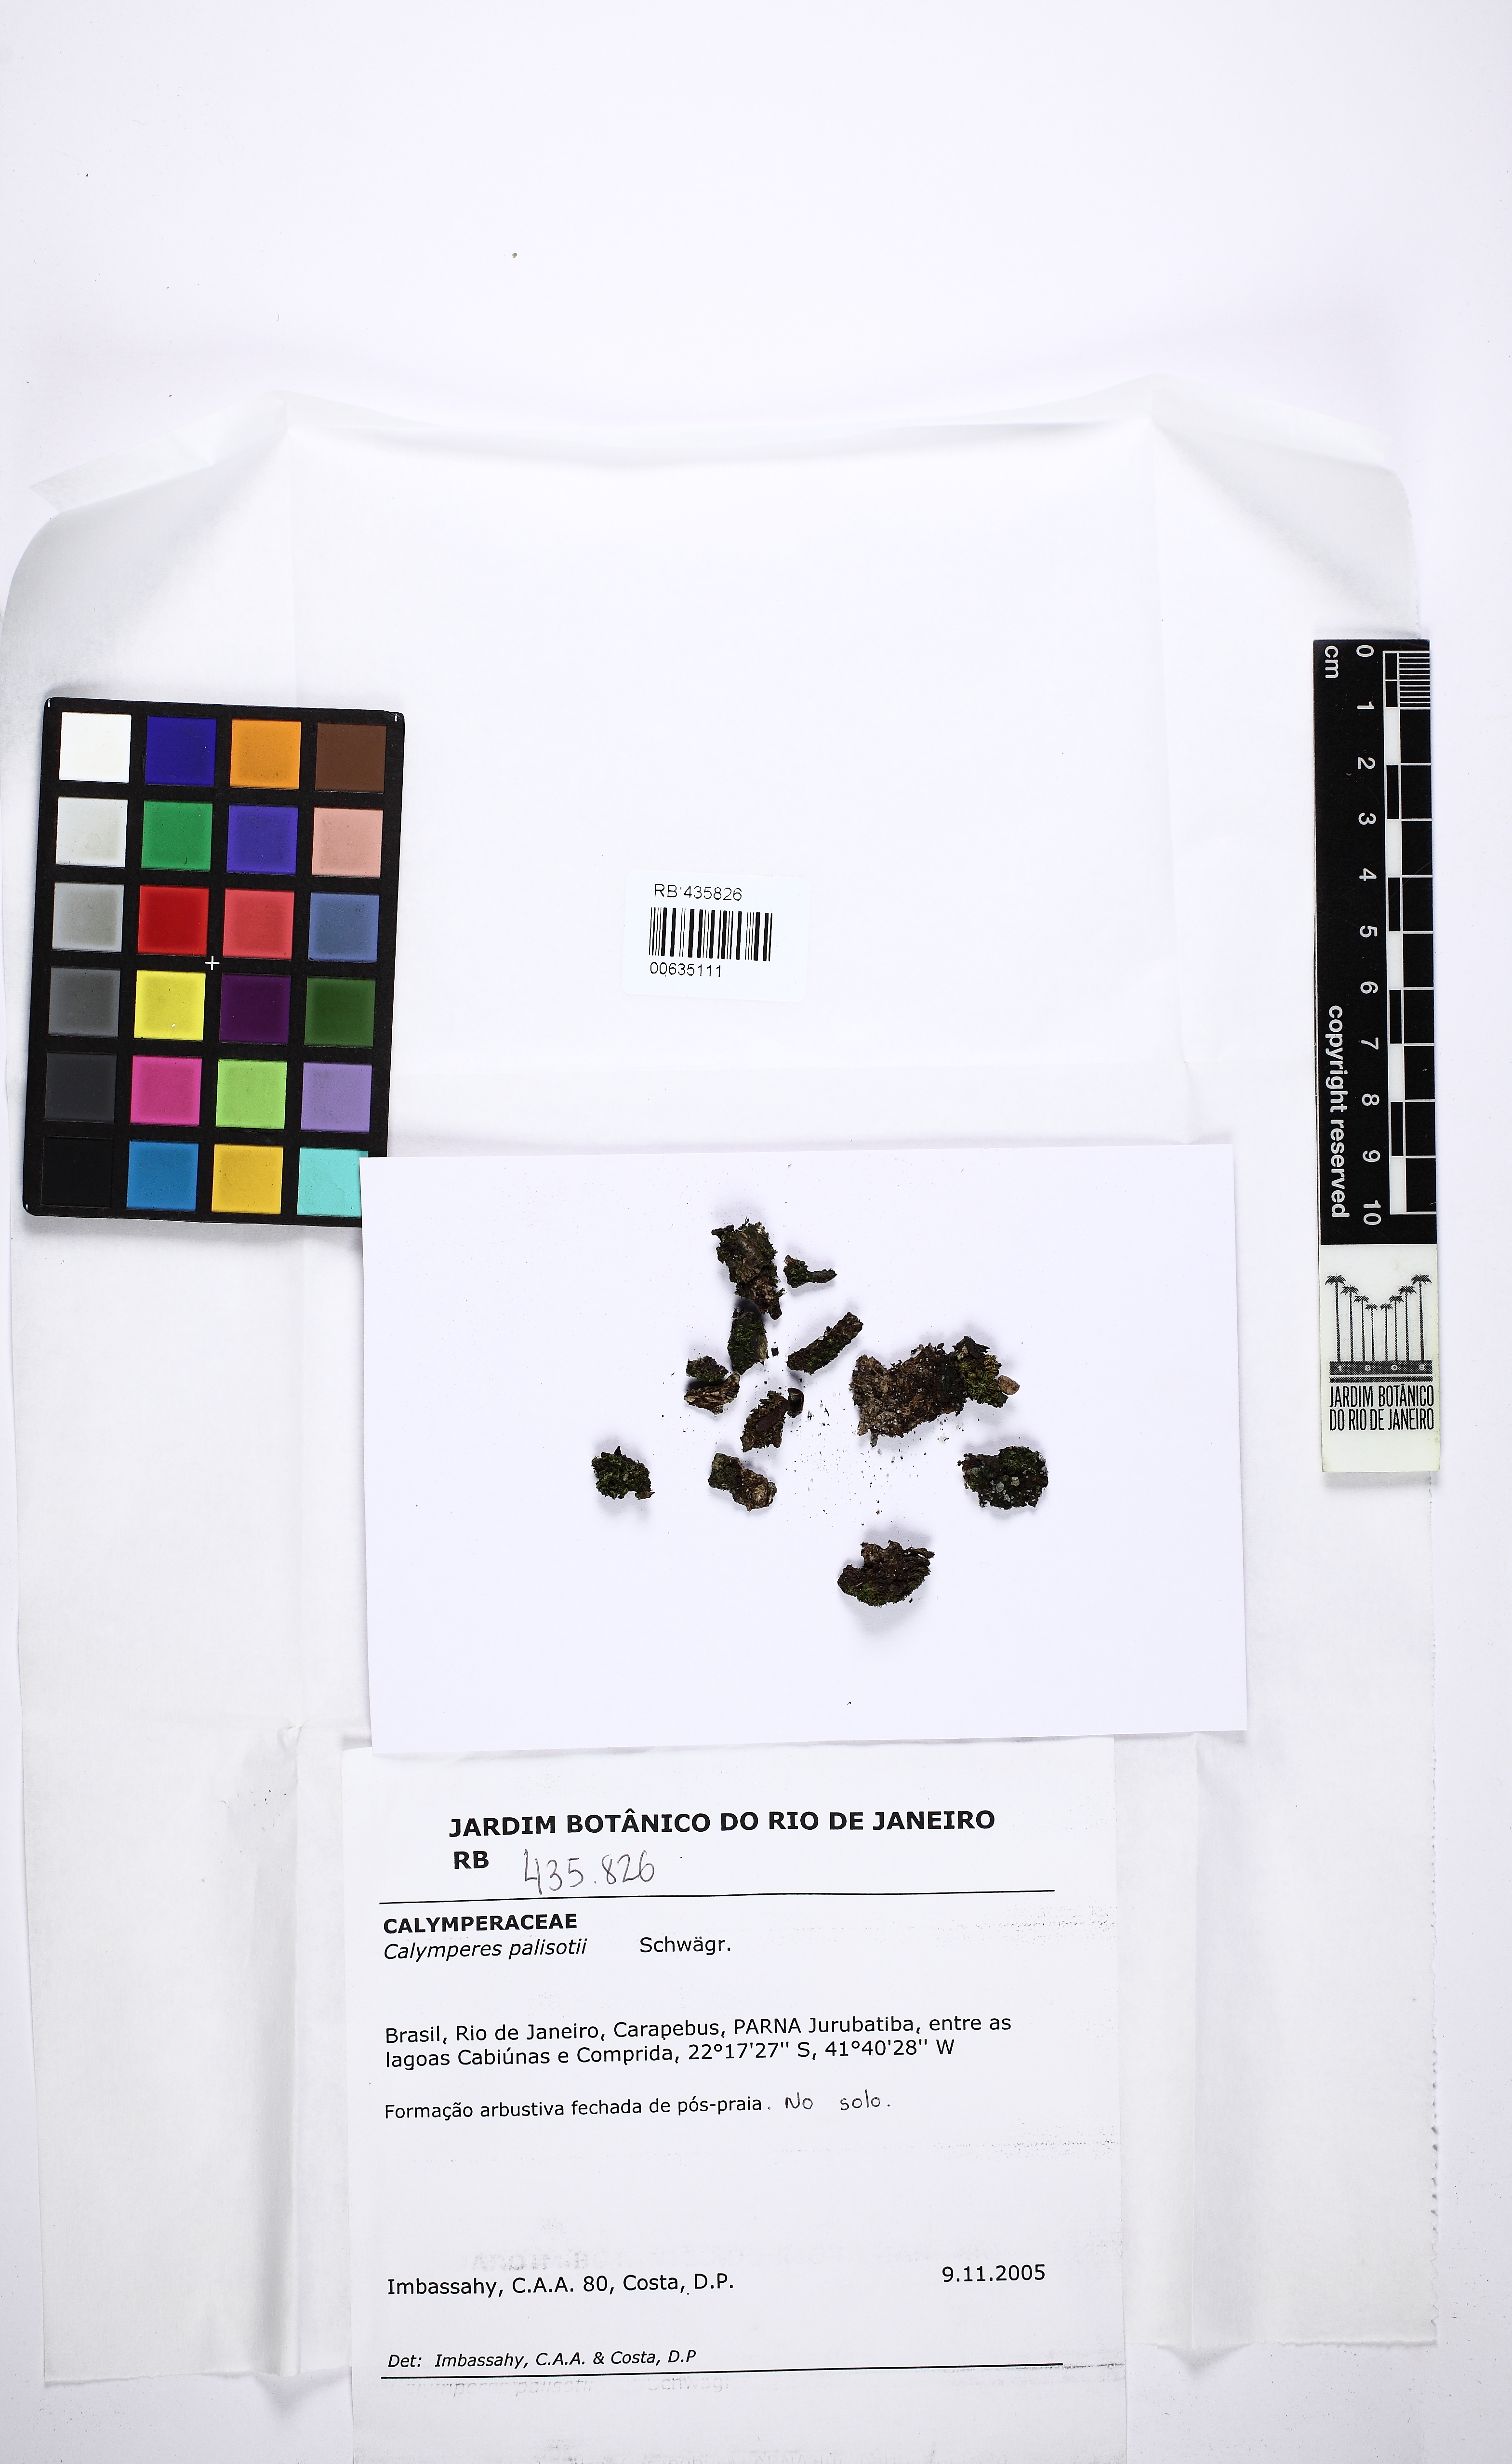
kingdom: Plantae
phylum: Bryophyta
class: Bryopsida
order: Dicranales
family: Calymperaceae
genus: Calymperes
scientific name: Calymperes palisotii
